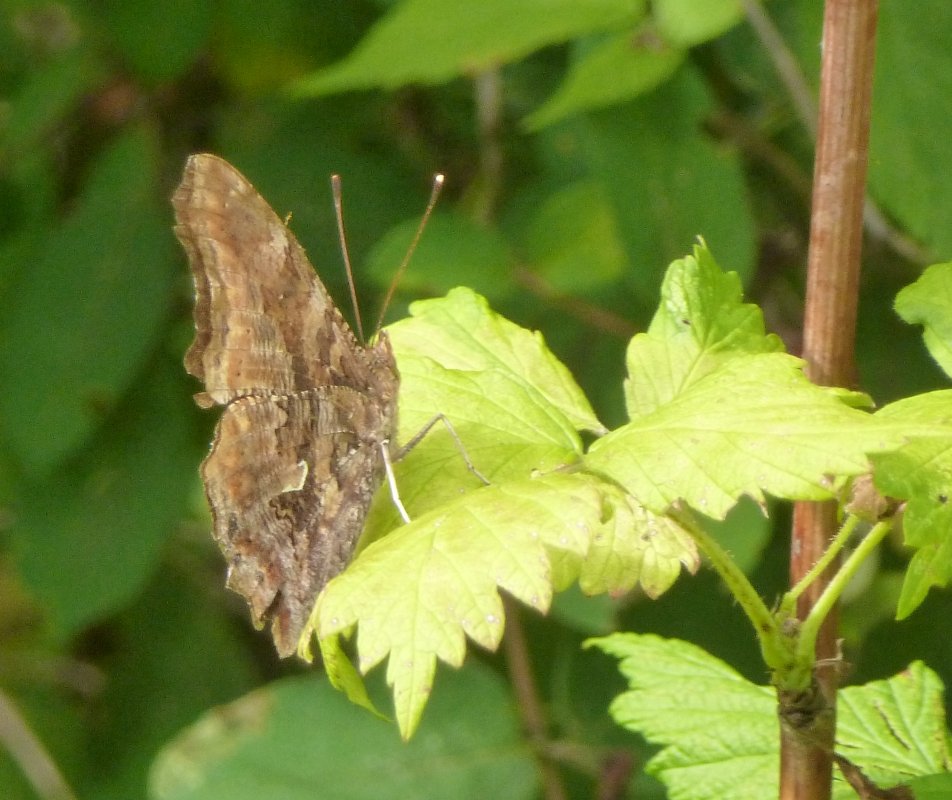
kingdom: Animalia
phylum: Arthropoda
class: Insecta
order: Lepidoptera
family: Nymphalidae
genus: Polygonia
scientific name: Polygonia comma
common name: Eastern Comma
